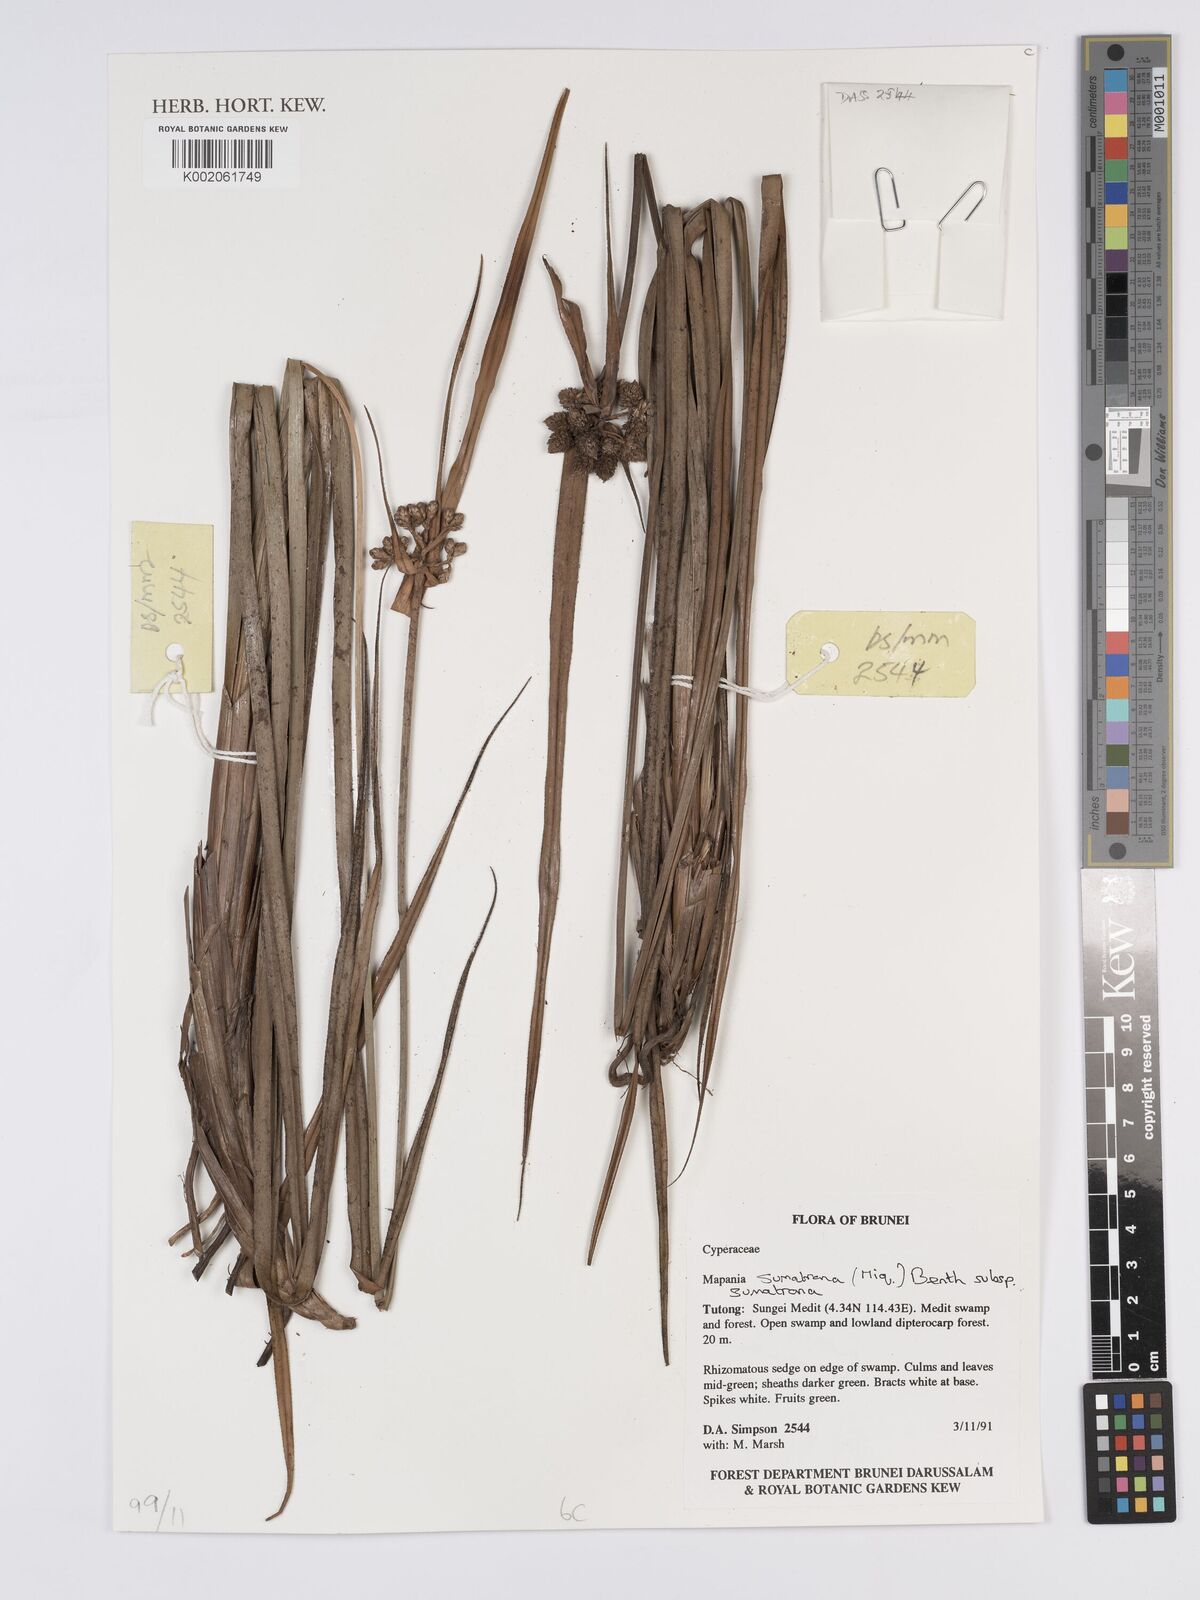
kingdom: Plantae
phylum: Tracheophyta
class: Liliopsida
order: Poales
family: Cyperaceae
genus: Mapania
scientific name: Mapania sumatrana
